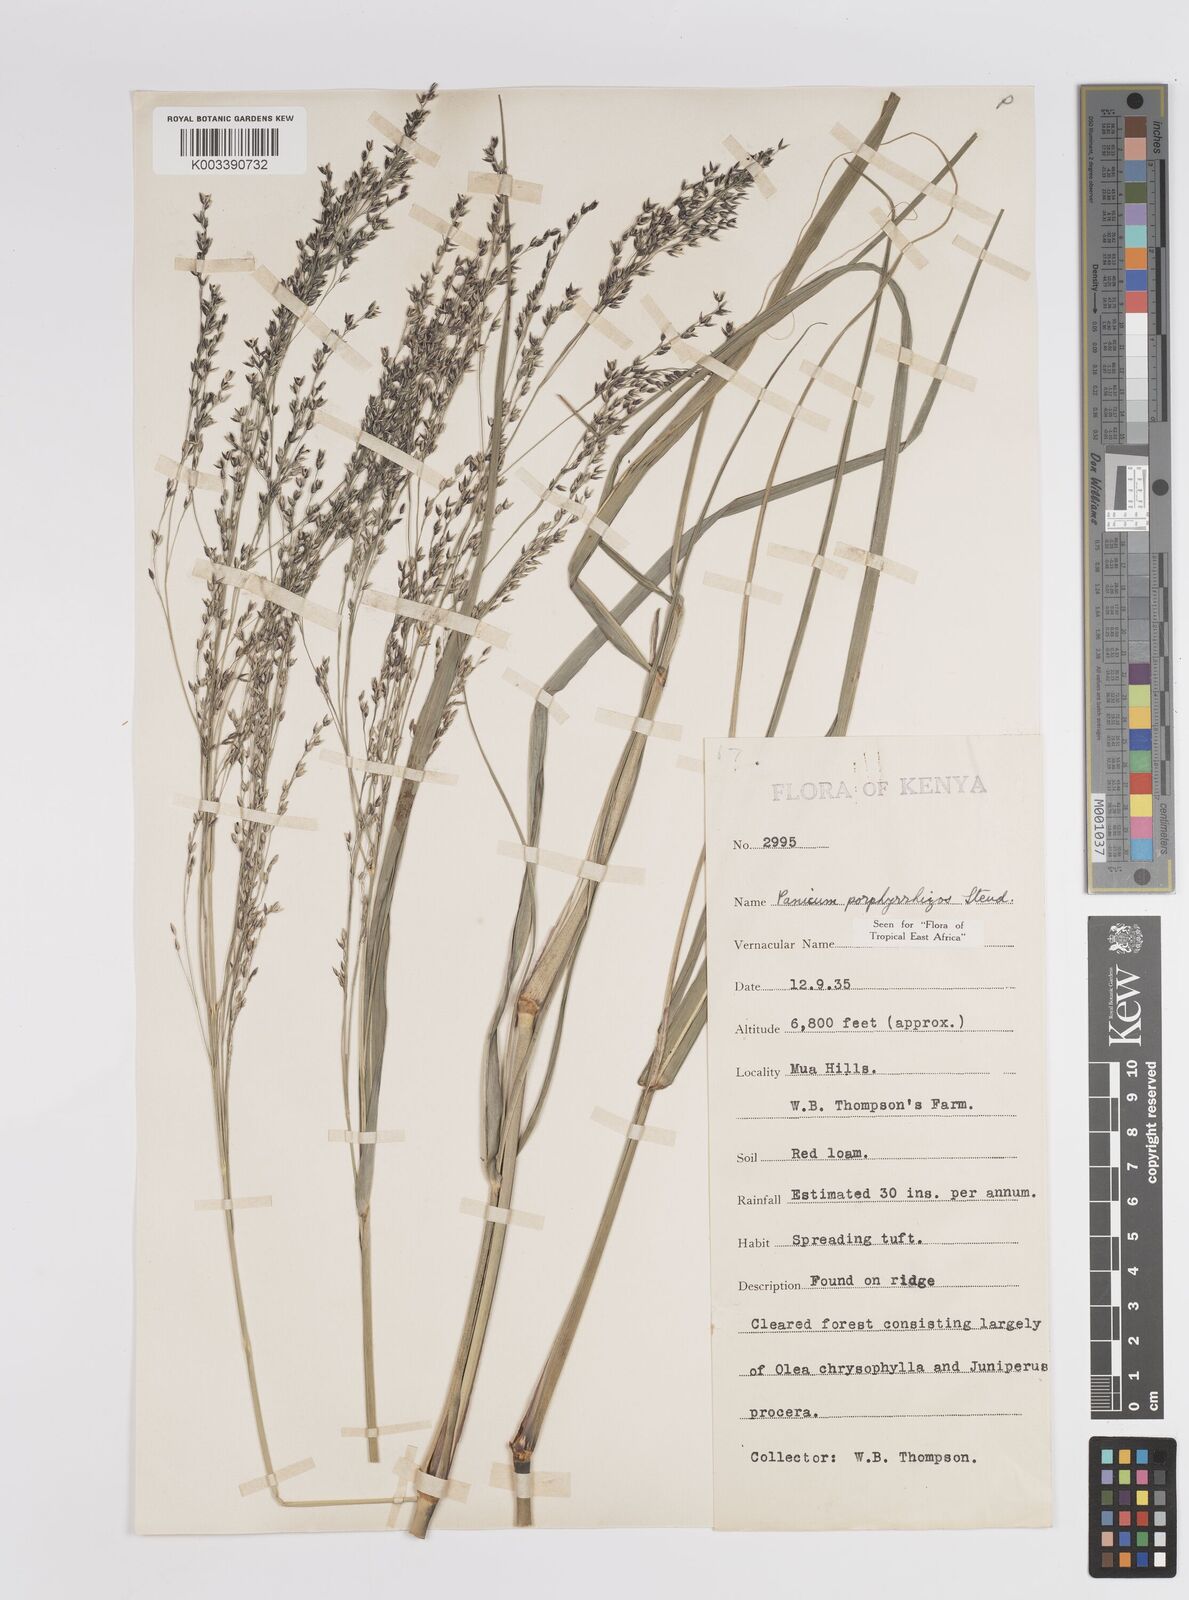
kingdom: Plantae
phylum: Tracheophyta
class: Liliopsida
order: Poales
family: Poaceae
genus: Panicum
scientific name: Panicum porphyrrhizos
